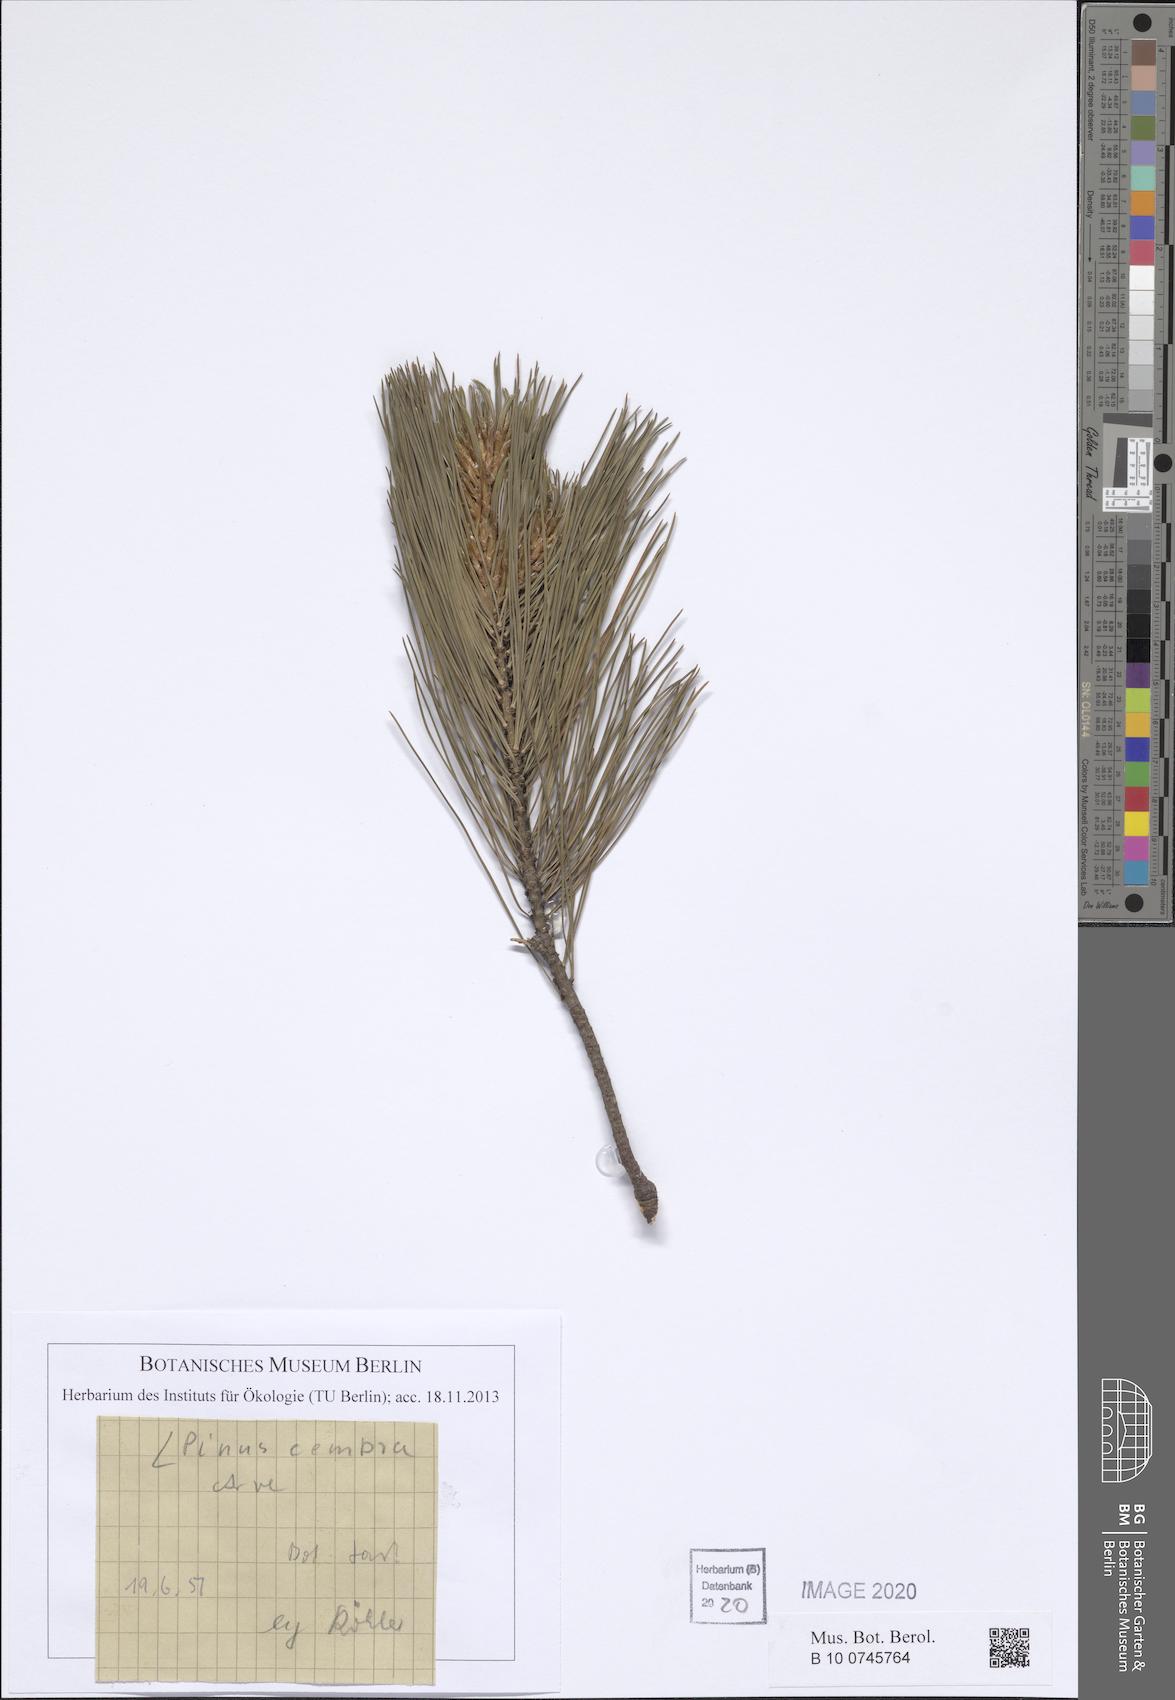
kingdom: Plantae
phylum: Tracheophyta
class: Pinopsida
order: Pinales
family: Pinaceae
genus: Pinus
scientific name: Pinus cembra
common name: Arolla pine
